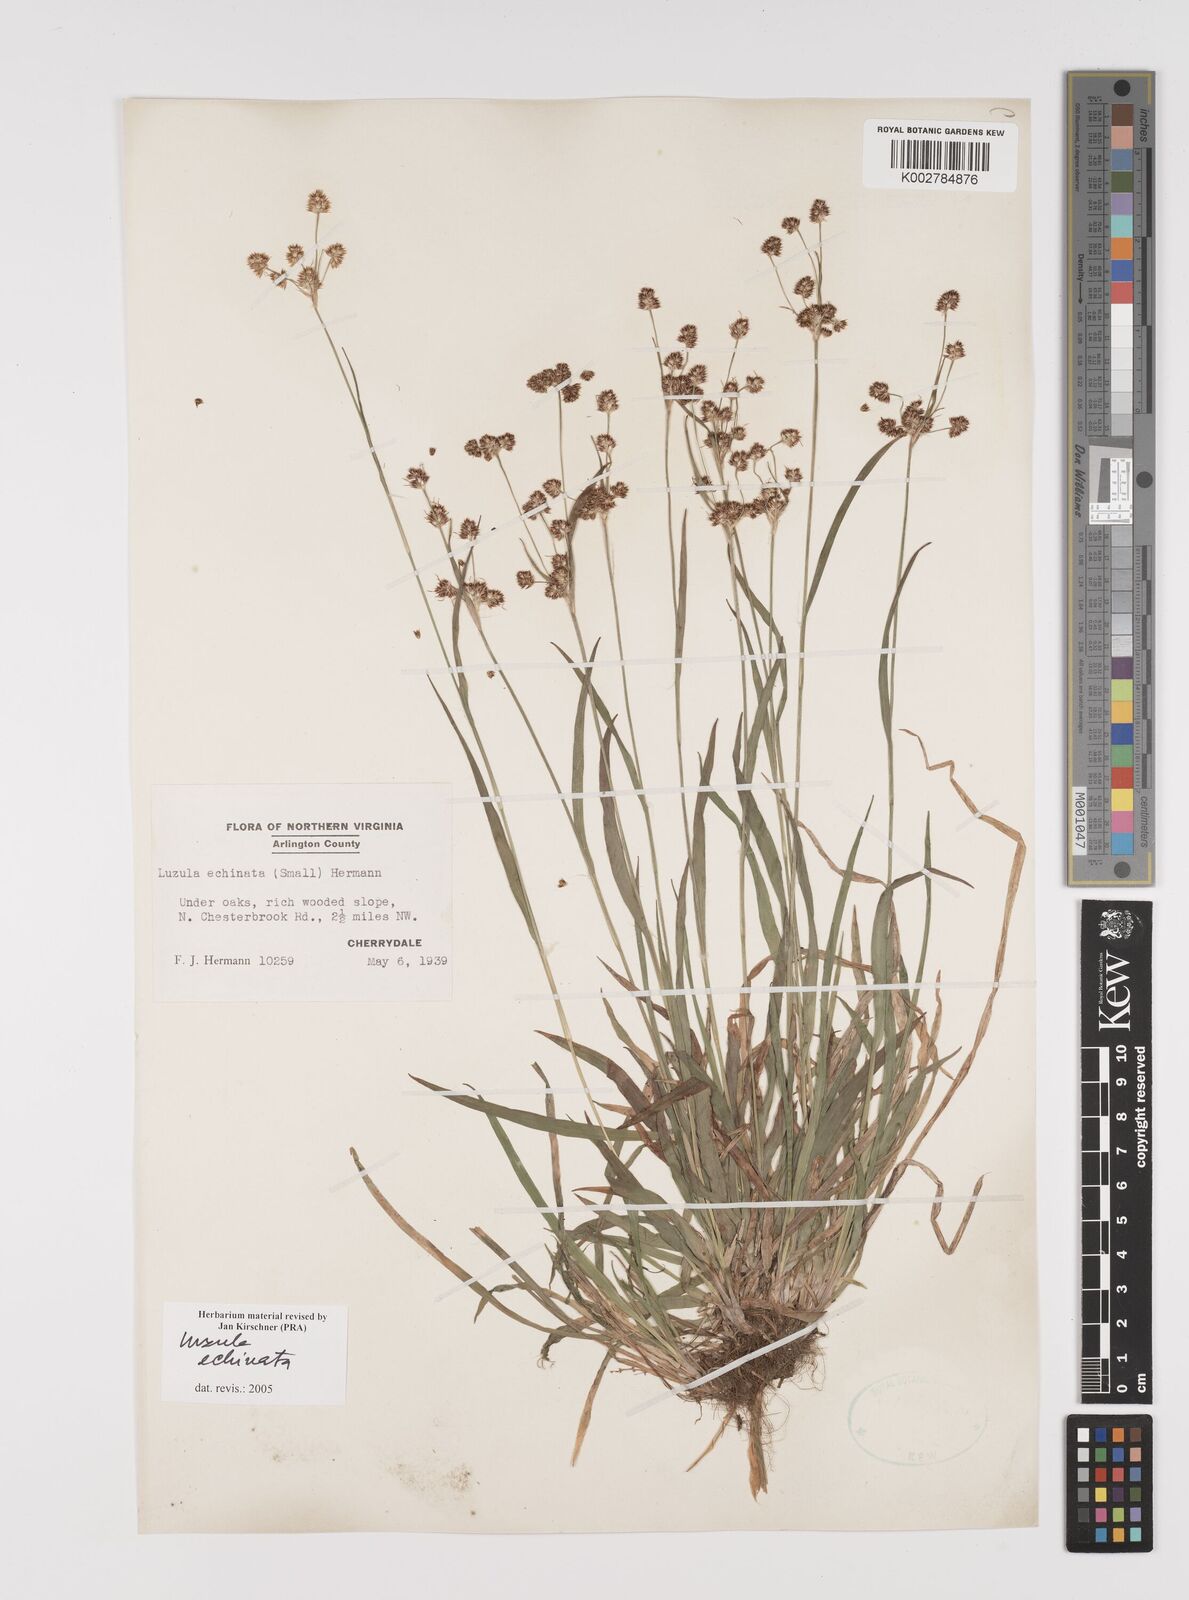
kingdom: Plantae
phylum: Tracheophyta
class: Liliopsida
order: Poales
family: Juncaceae
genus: Luzula
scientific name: Luzula echinata
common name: Hedgehog woodrush
